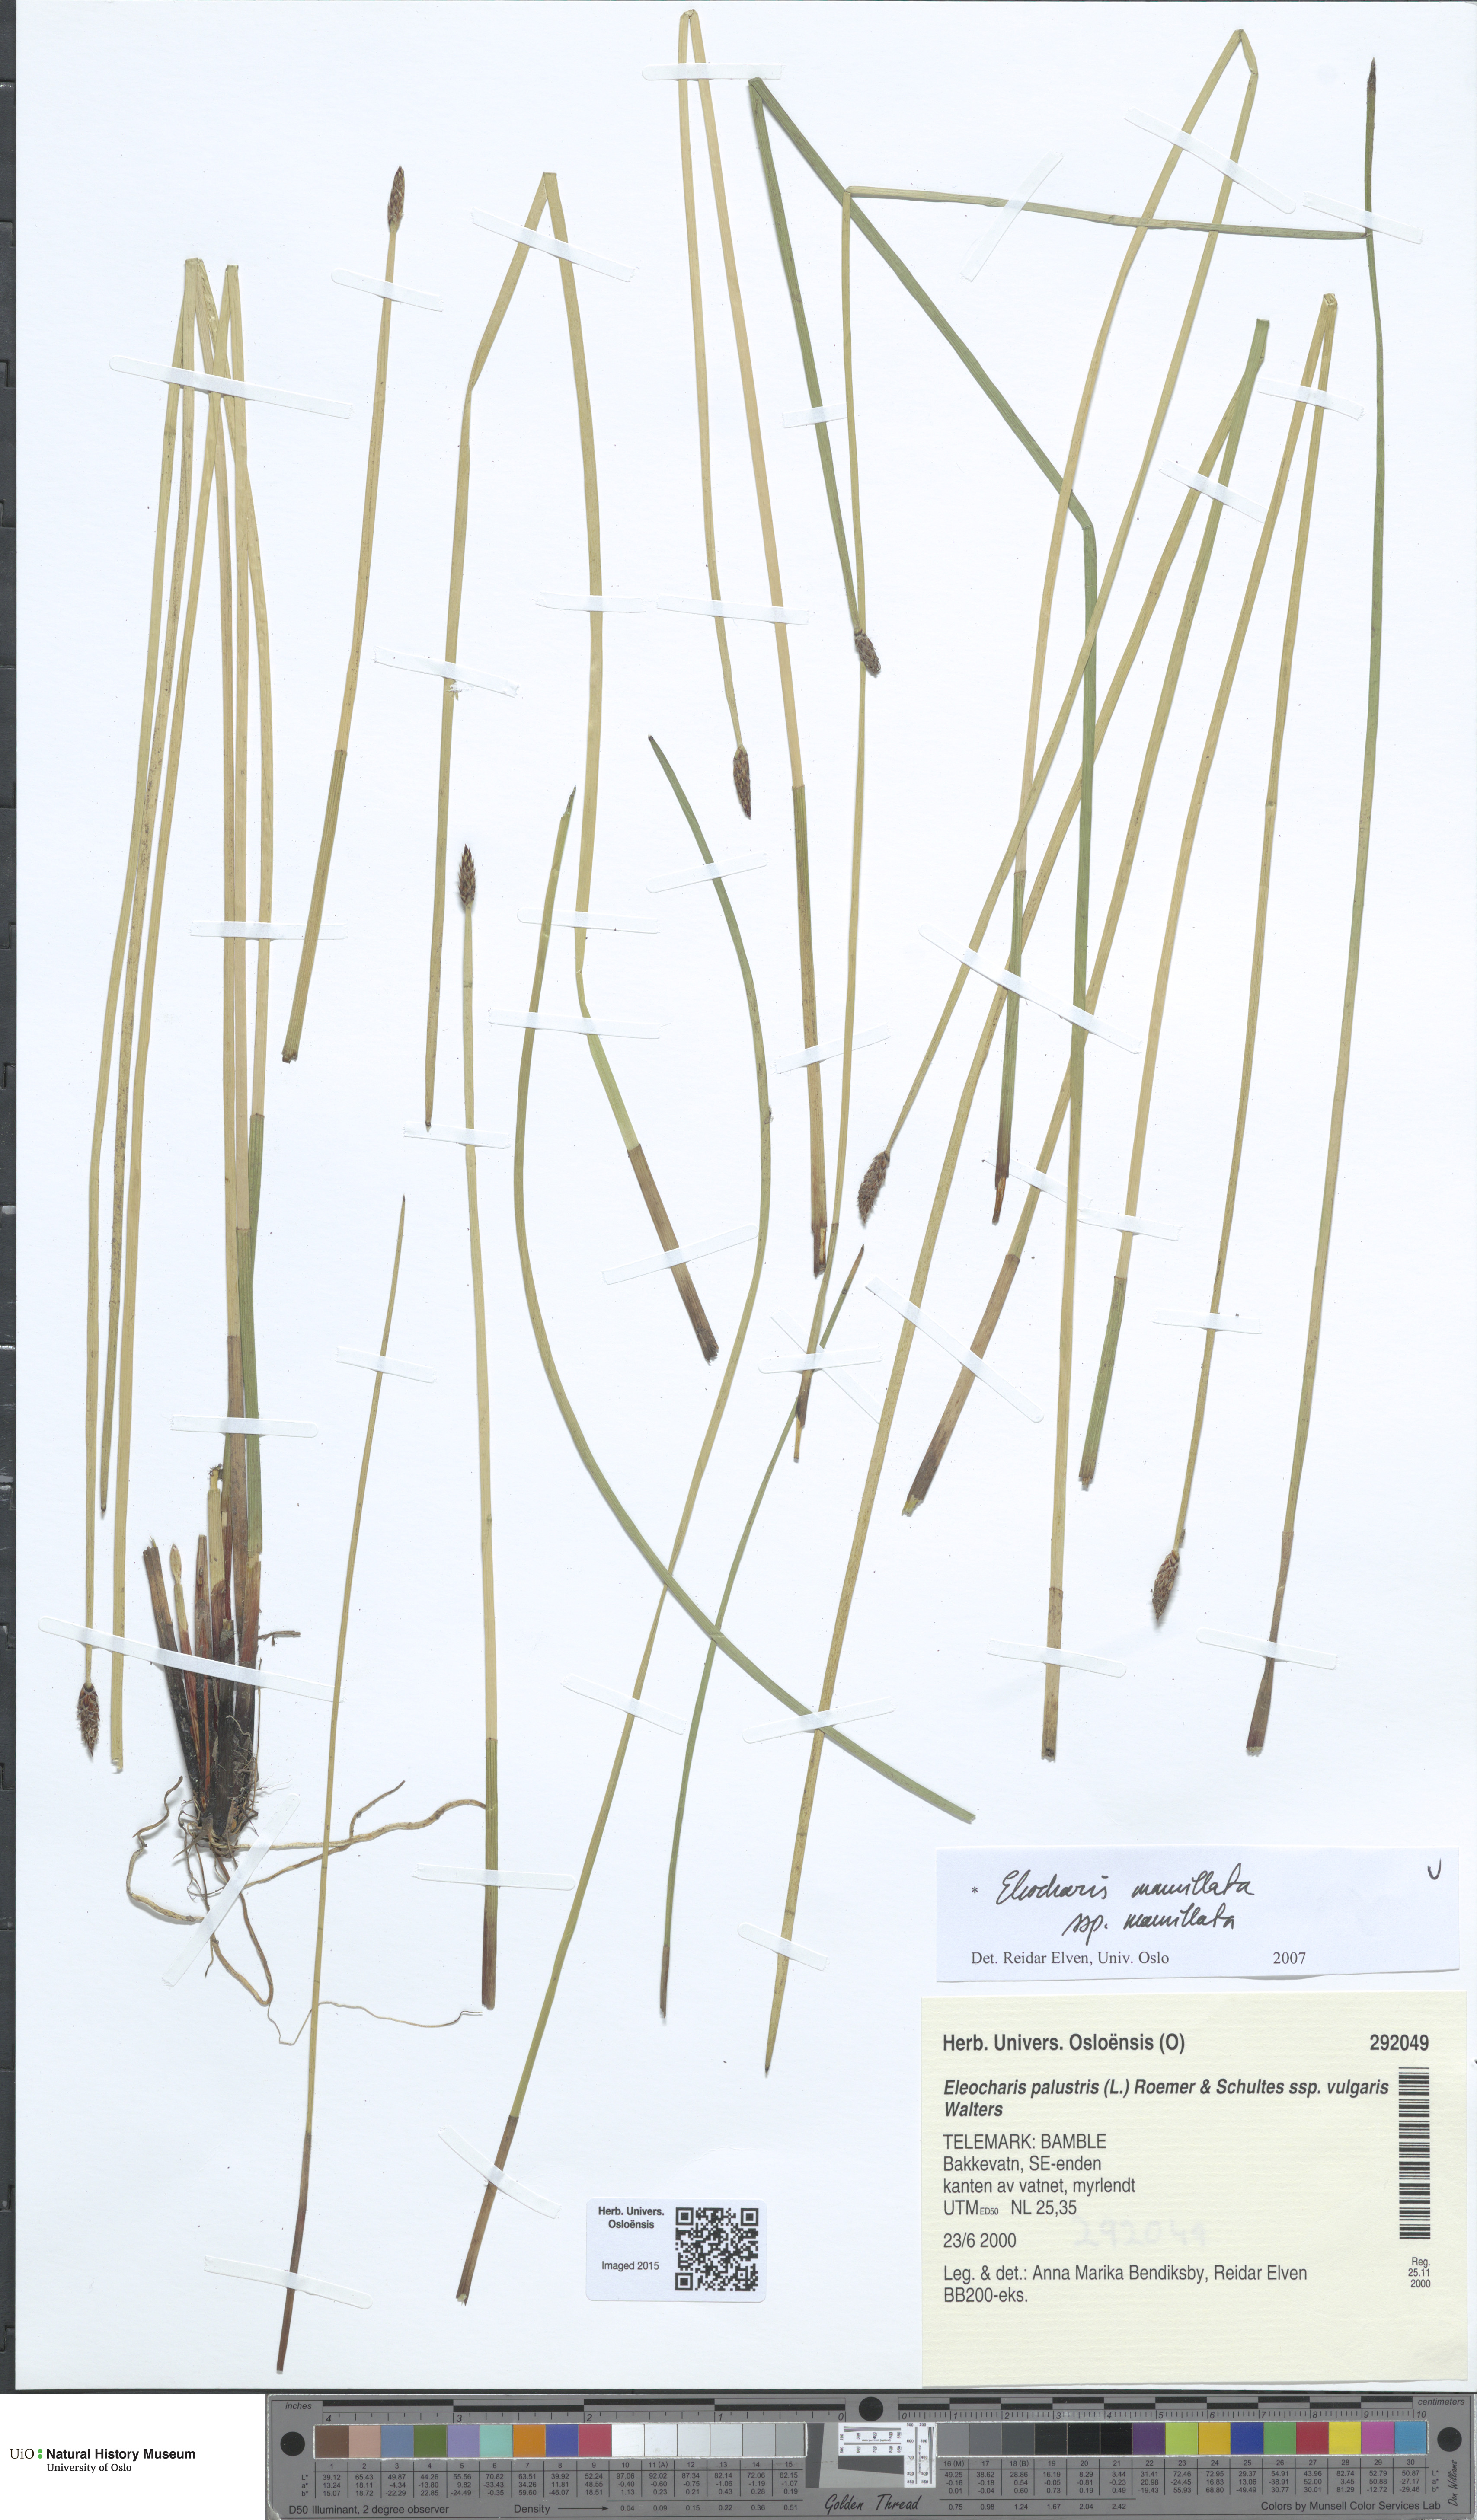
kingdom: Plantae
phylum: Tracheophyta
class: Liliopsida
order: Poales
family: Cyperaceae
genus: Eleocharis
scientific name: Eleocharis mamillata
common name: Northern spike-rush
